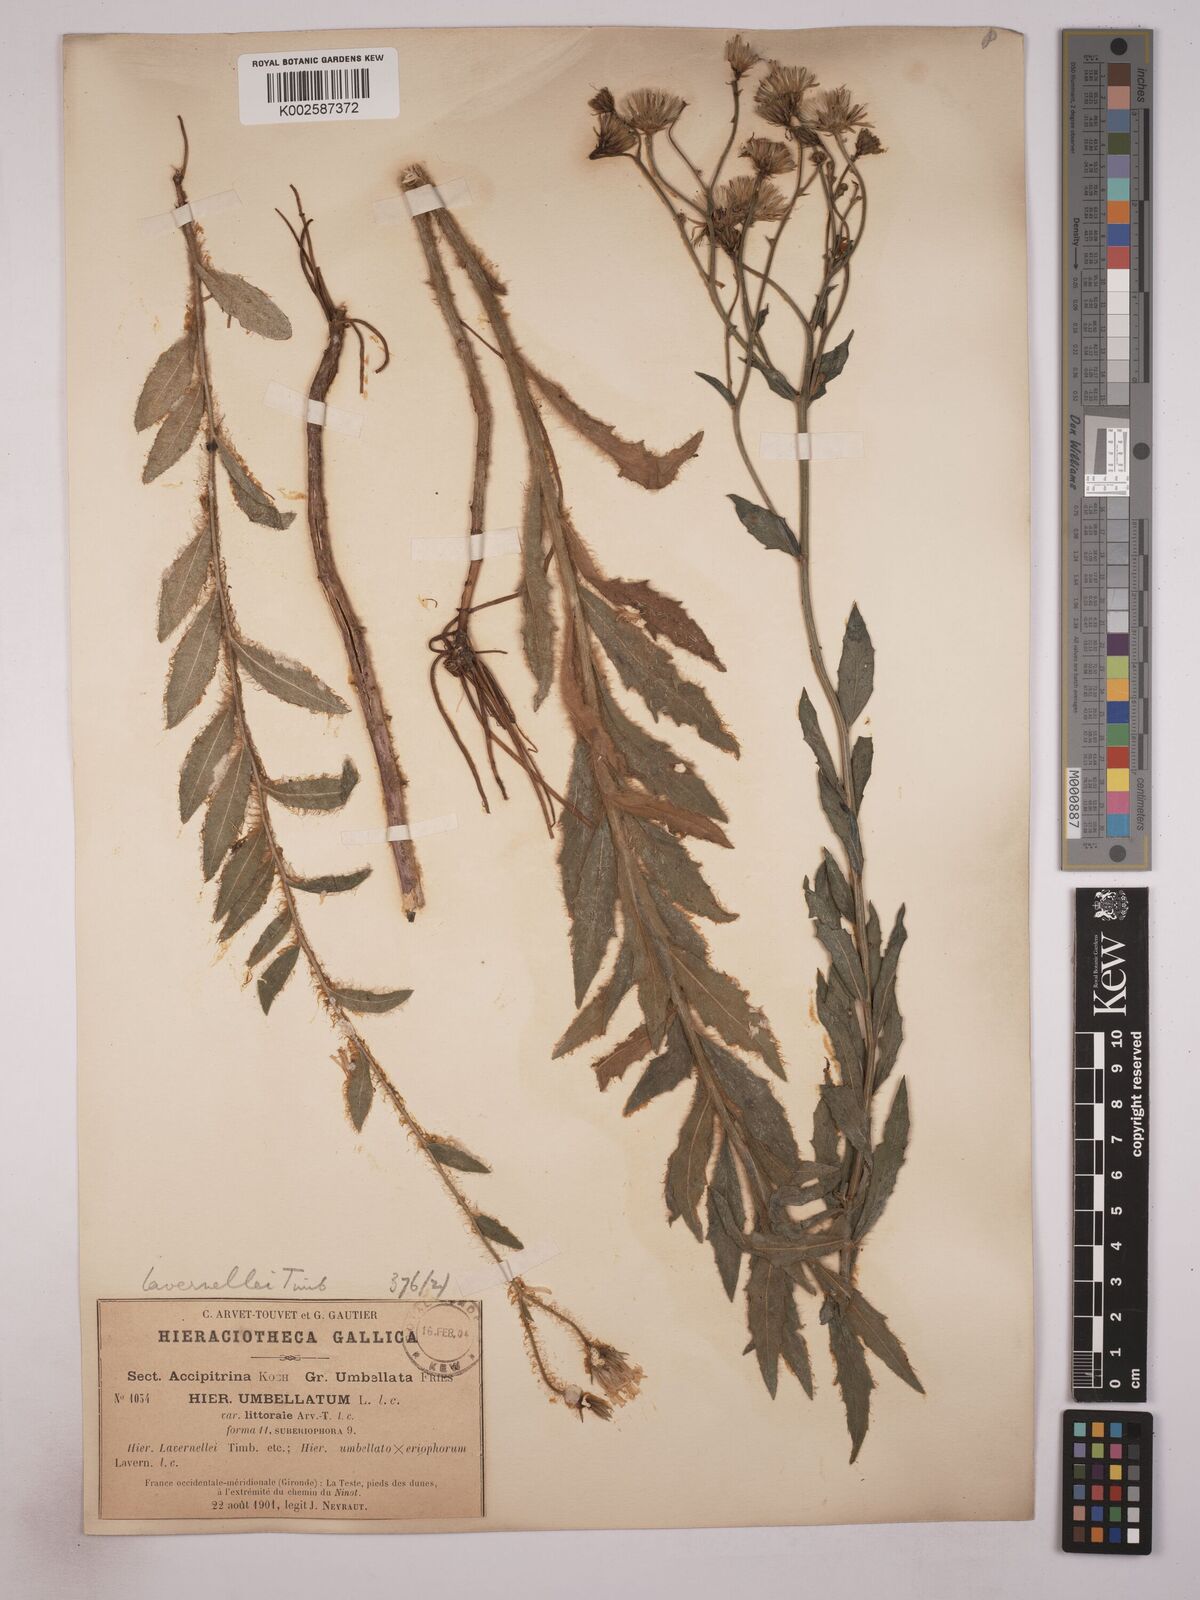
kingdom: Plantae
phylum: Tracheophyta
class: Magnoliopsida
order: Asterales
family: Asteraceae
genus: Hieracium
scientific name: Hieracium
